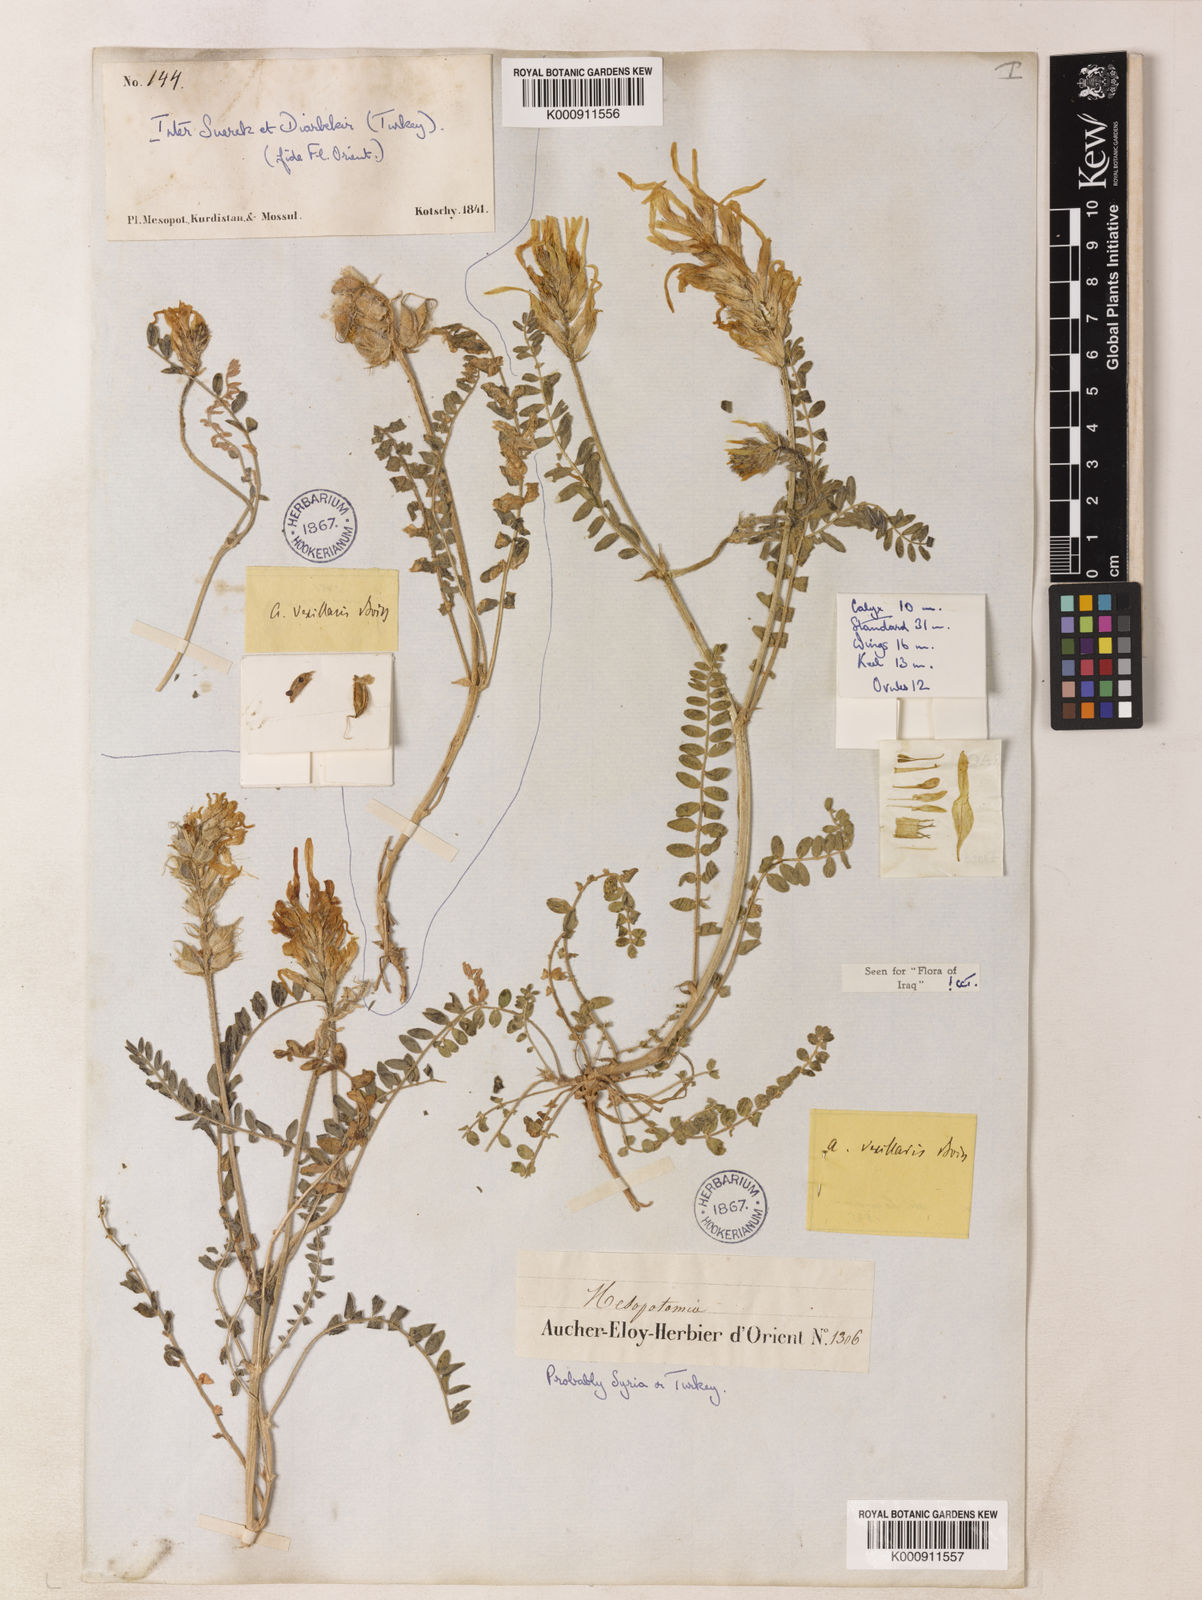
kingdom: Plantae
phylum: Tracheophyta
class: Magnoliopsida
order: Fabales
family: Fabaceae
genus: Astragalus
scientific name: Astragalus vexillaris
